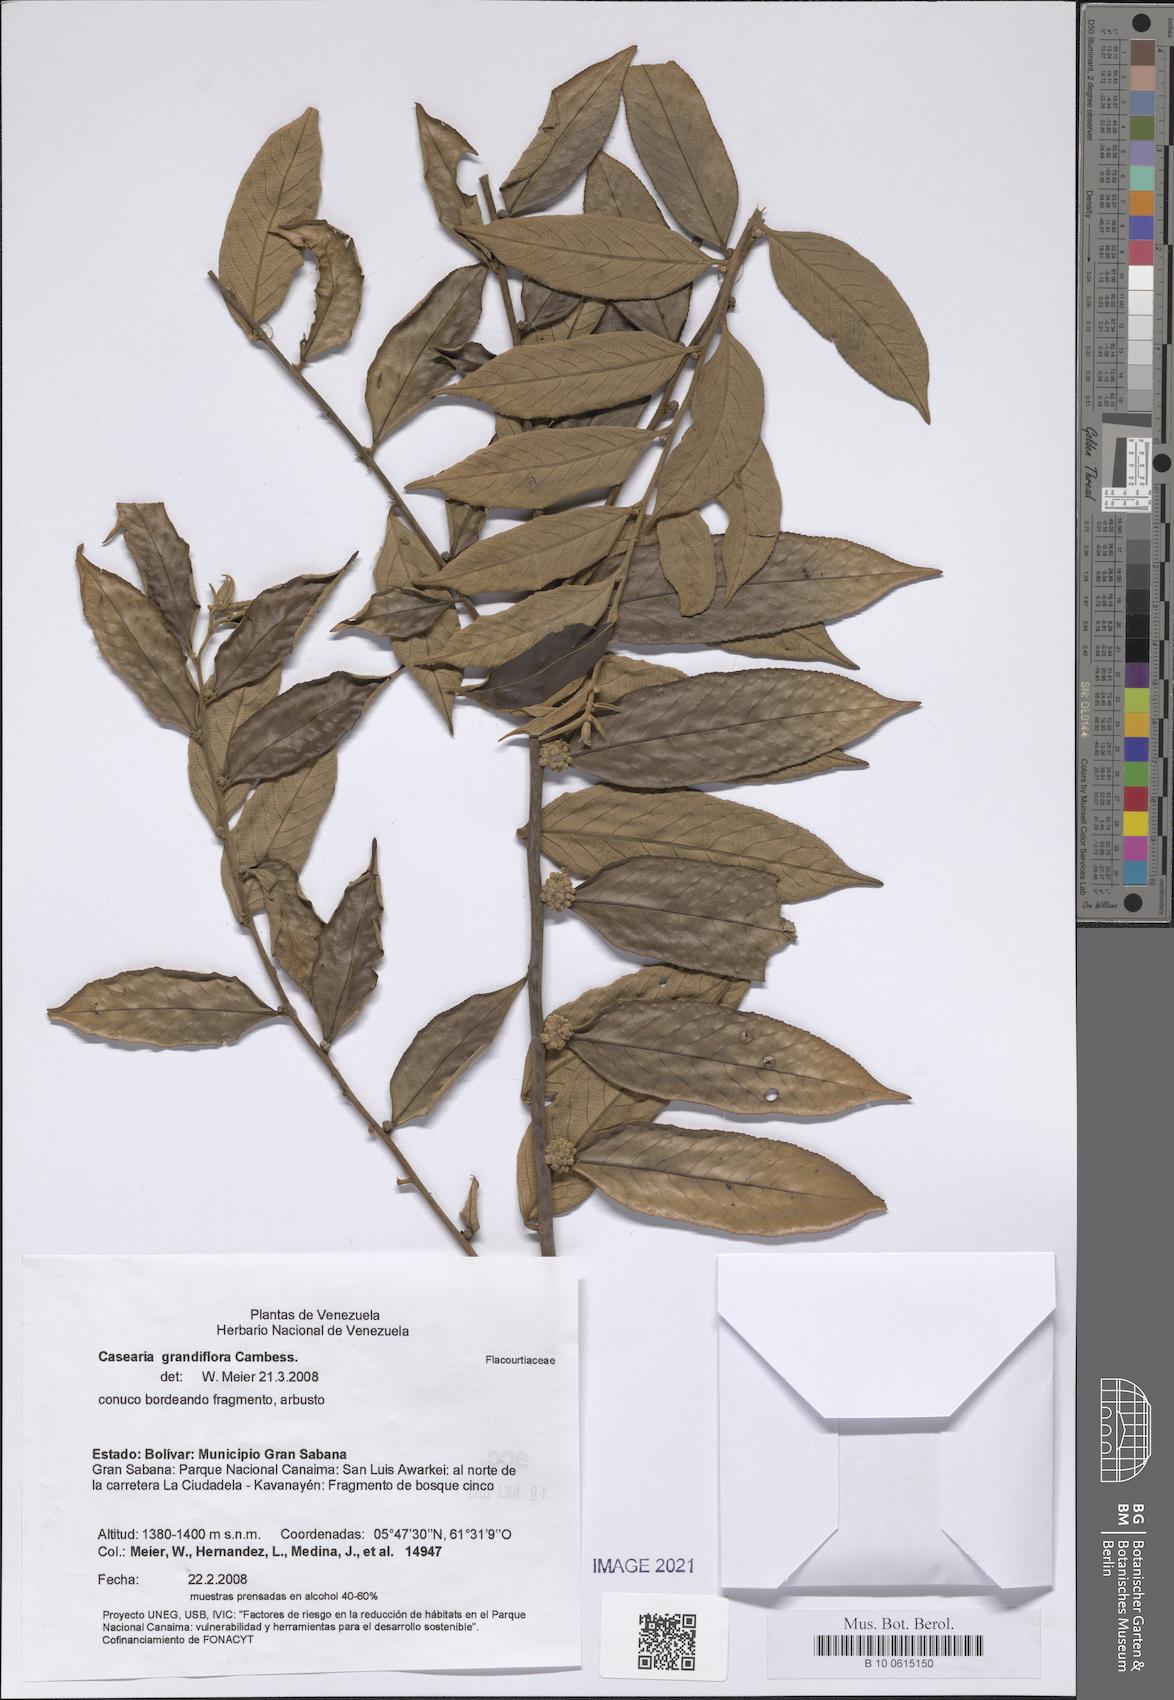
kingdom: Plantae
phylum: Tracheophyta
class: Magnoliopsida
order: Malpighiales
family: Salicaceae
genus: Casearia
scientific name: Casearia grandiflora
